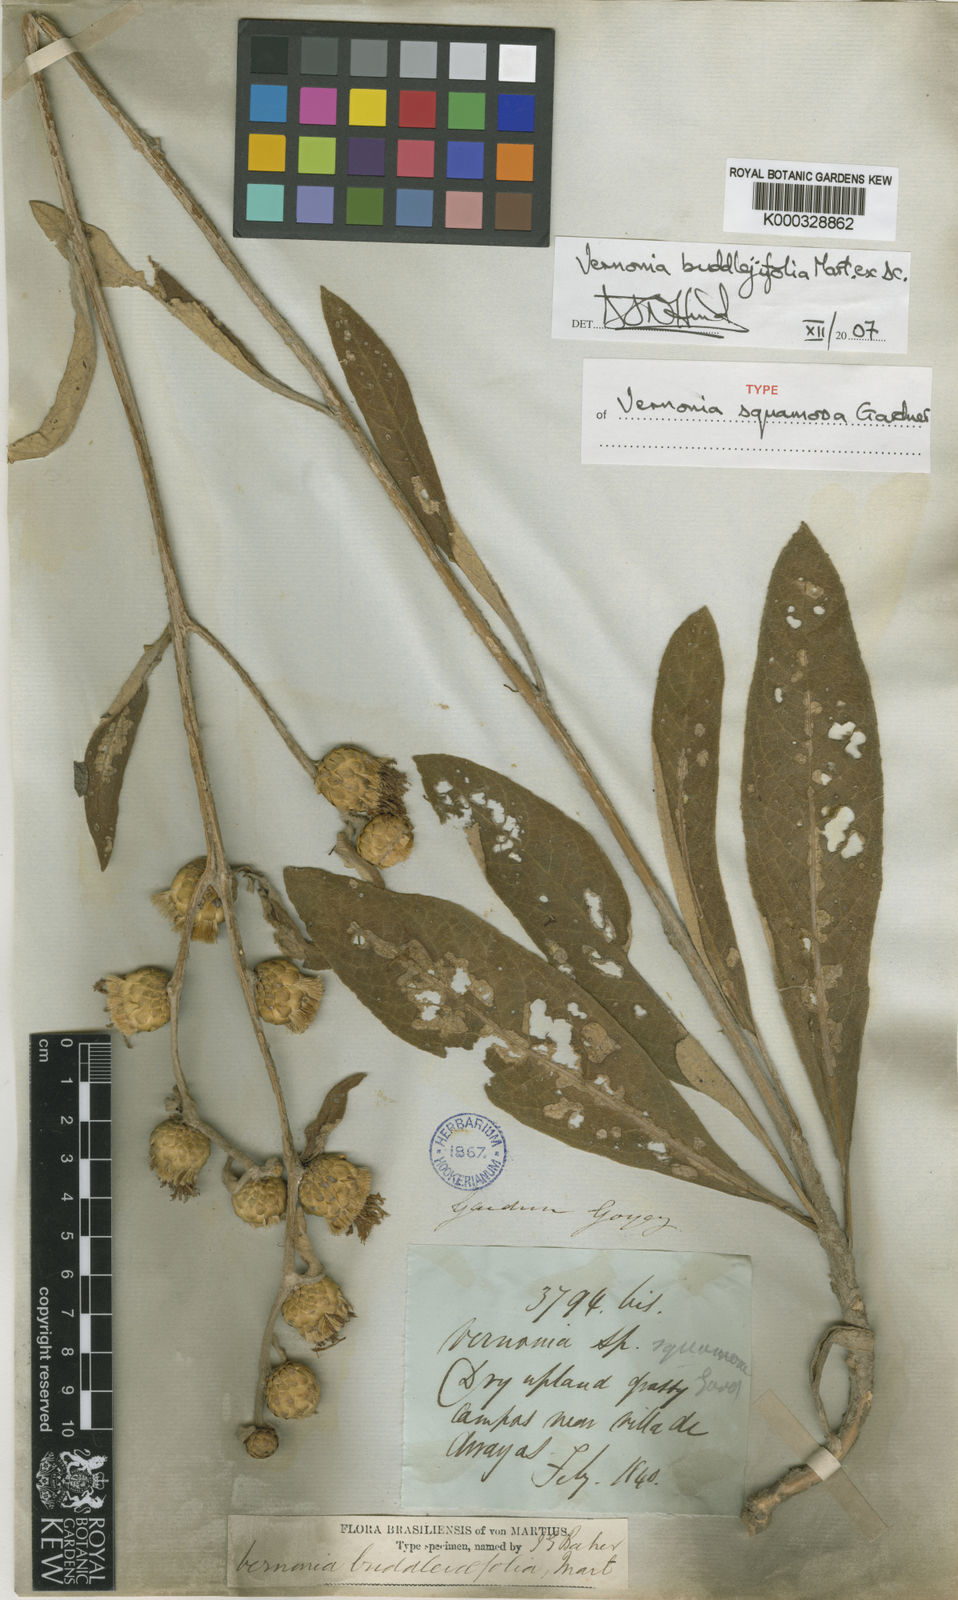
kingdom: Plantae
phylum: Tracheophyta
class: Magnoliopsida
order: Asterales
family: Asteraceae
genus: Vernonia
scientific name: Vernonia
